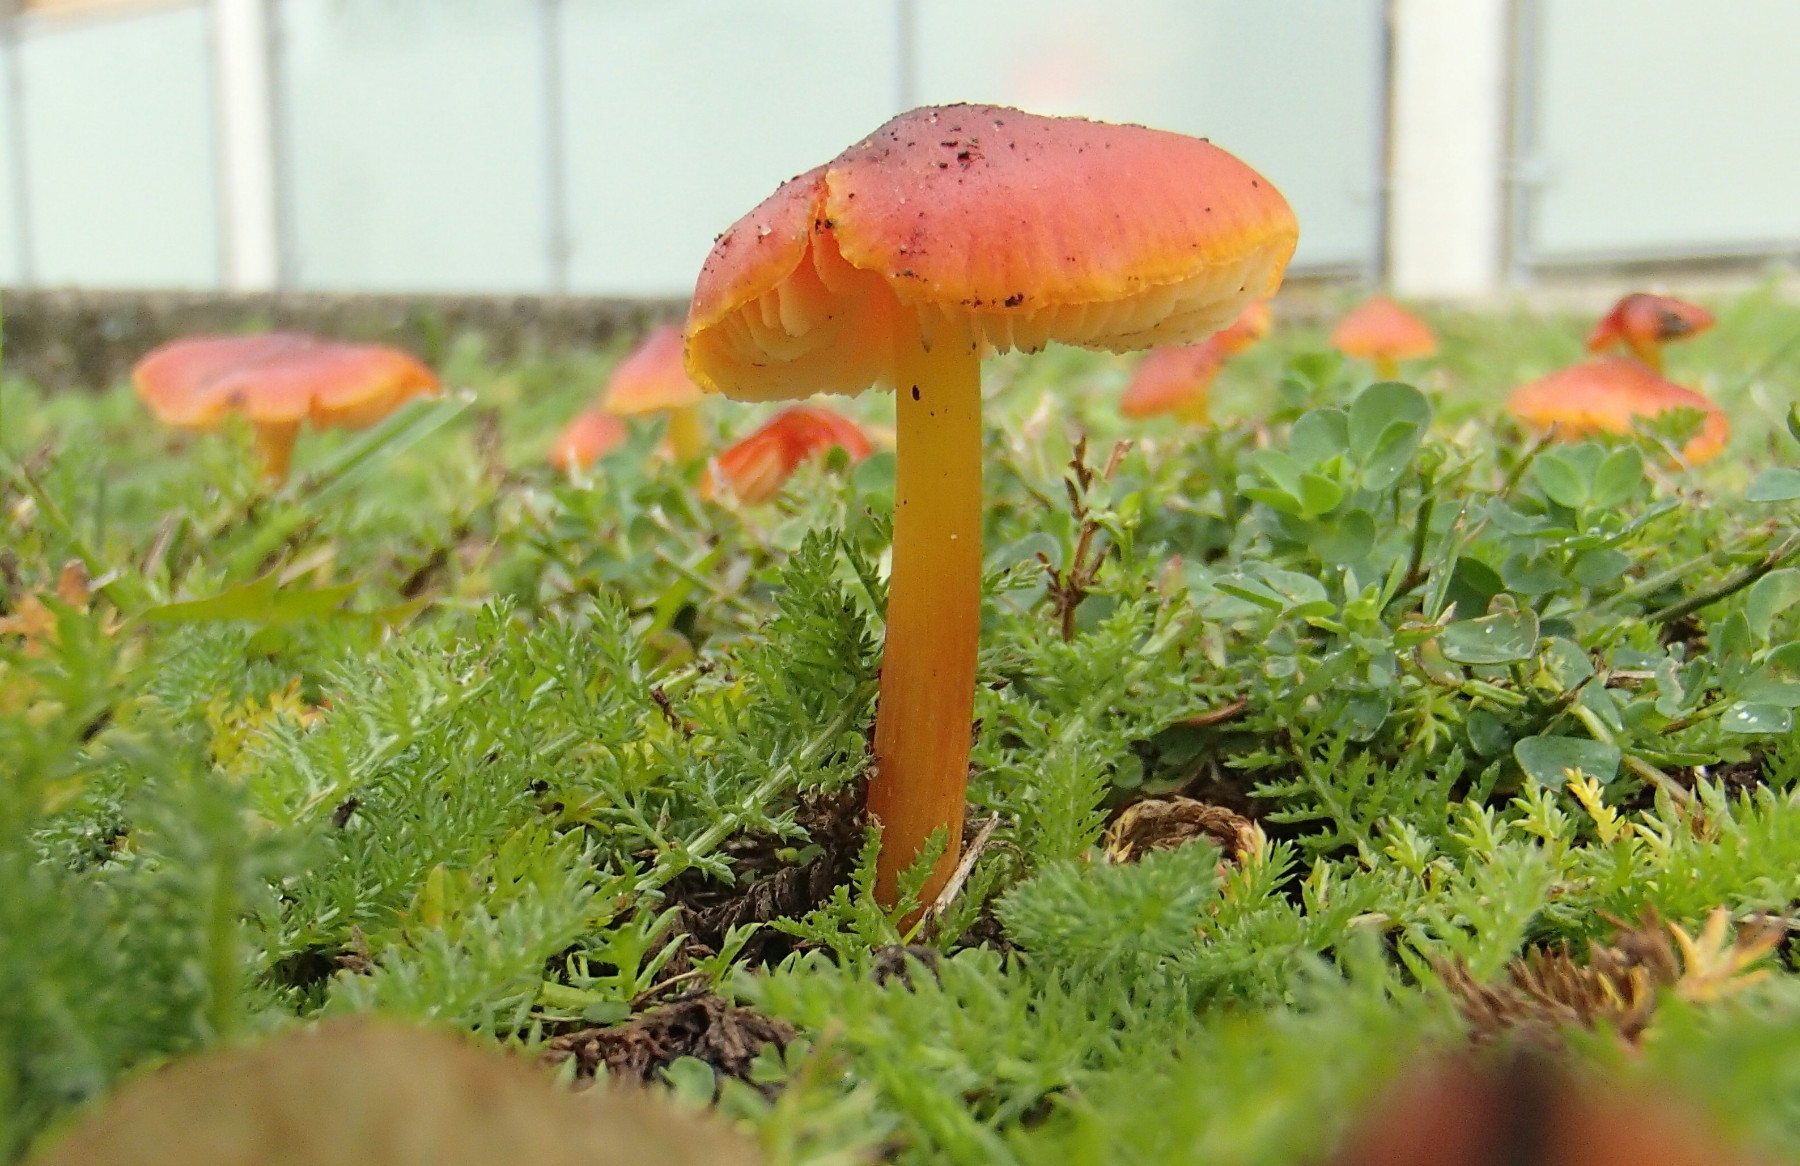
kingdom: Fungi
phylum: Basidiomycota
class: Agaricomycetes
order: Agaricales
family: Hygrophoraceae
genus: Hygrocybe
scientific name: Hygrocybe conica
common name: kegle-vokshat
